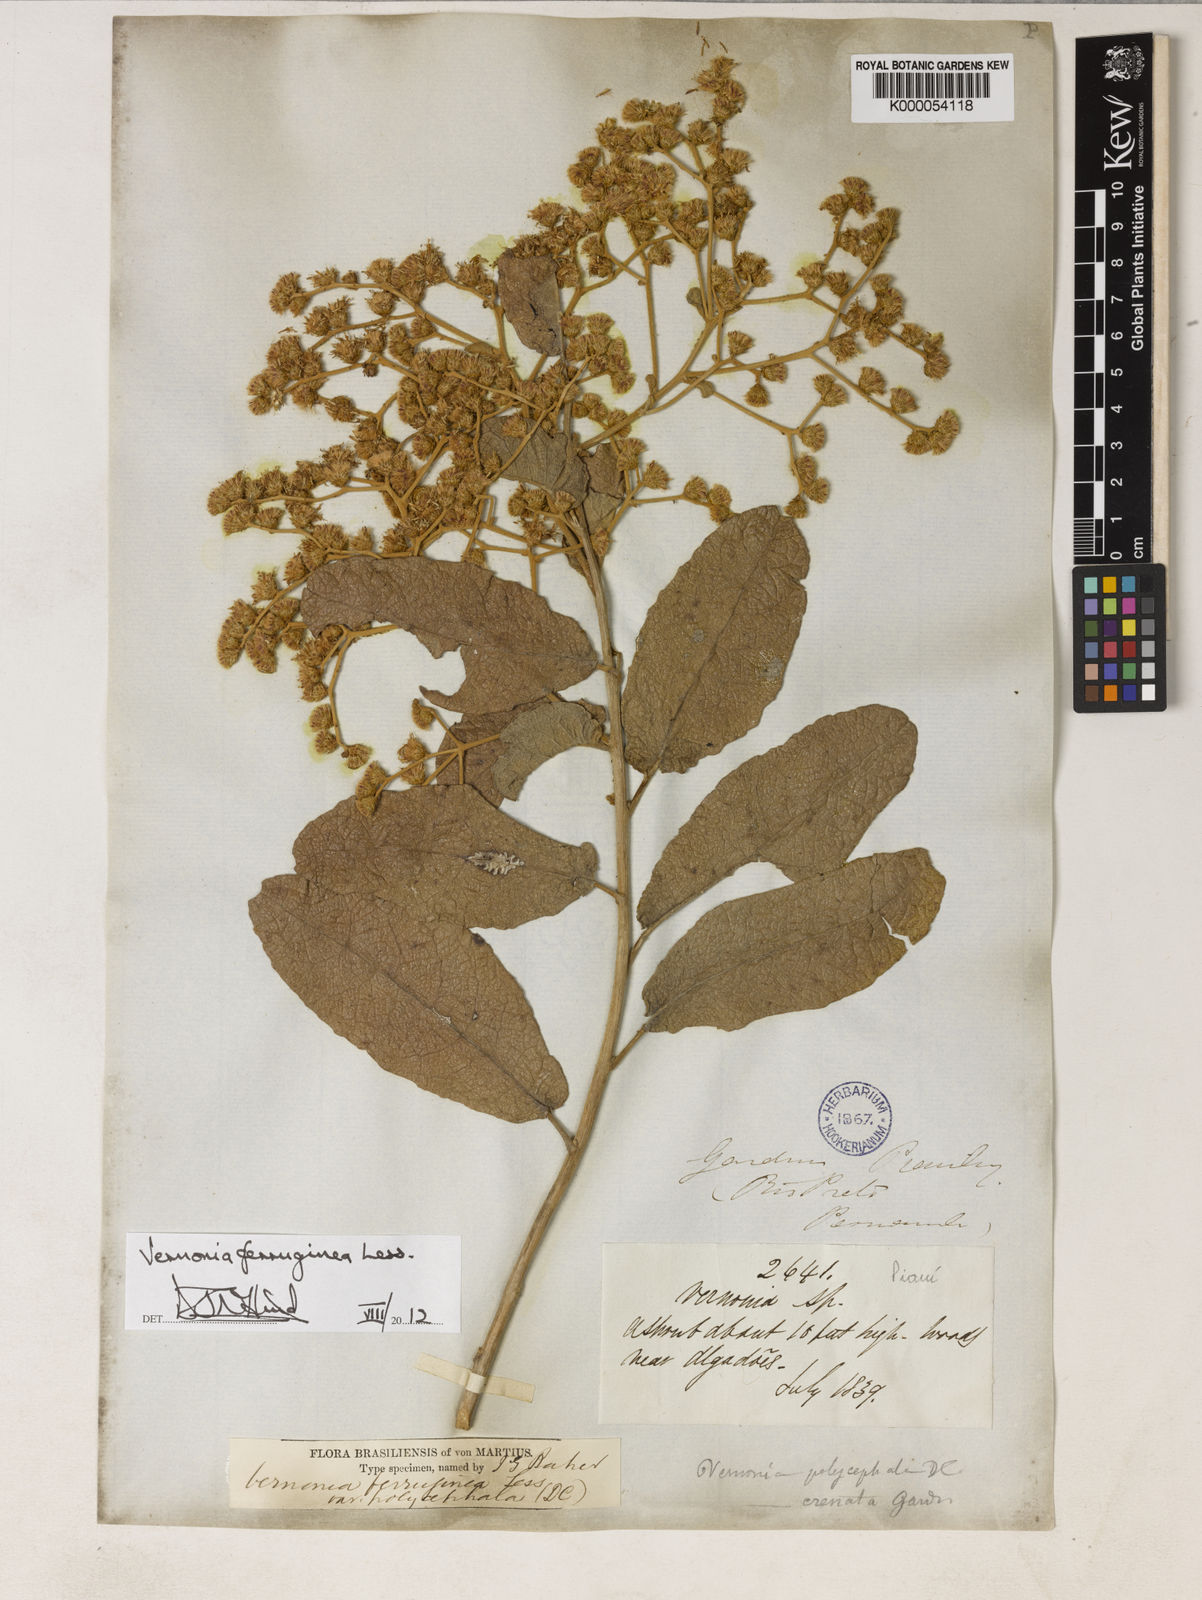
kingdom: Plantae
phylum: Tracheophyta
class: Magnoliopsida
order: Asterales
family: Asteraceae
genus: Vernonanthura
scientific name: Vernonanthura ferruginea
